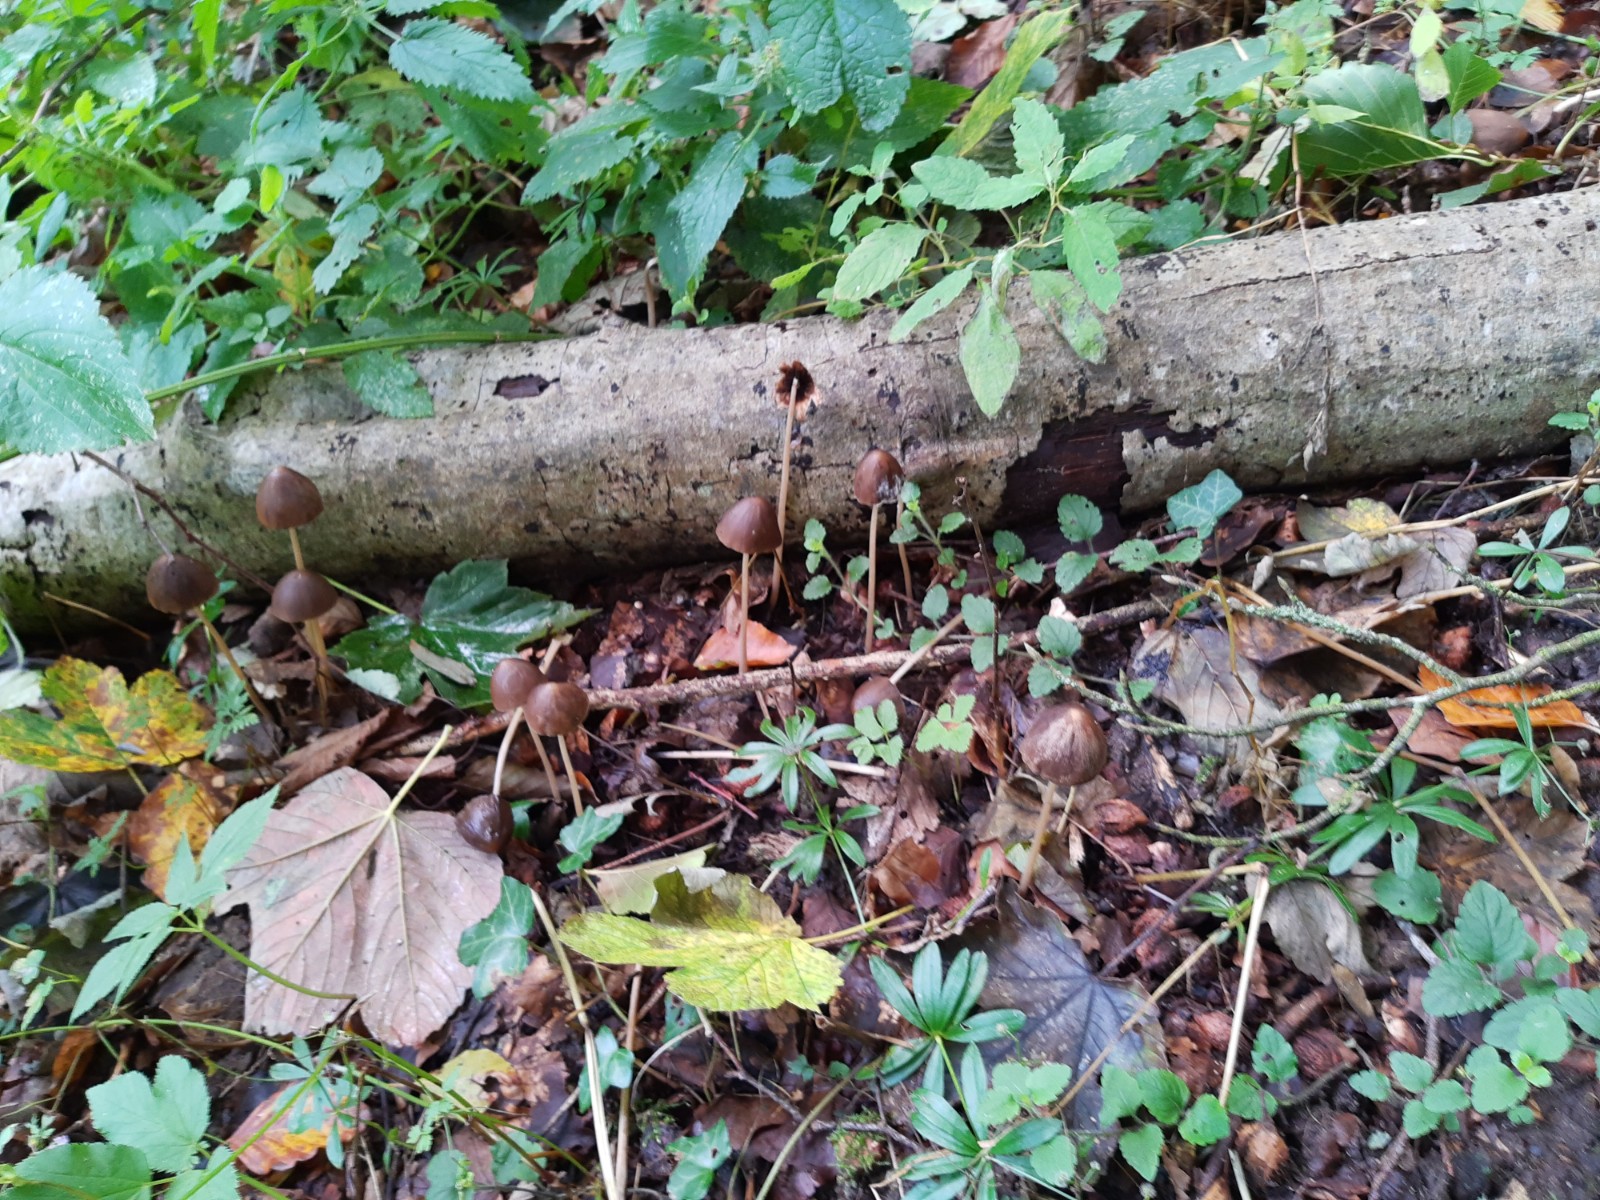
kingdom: Fungi
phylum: Basidiomycota
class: Agaricomycetes
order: Agaricales
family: Psathyrellaceae
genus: Parasola
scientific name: Parasola conopilea
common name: kegle-hjulhat
